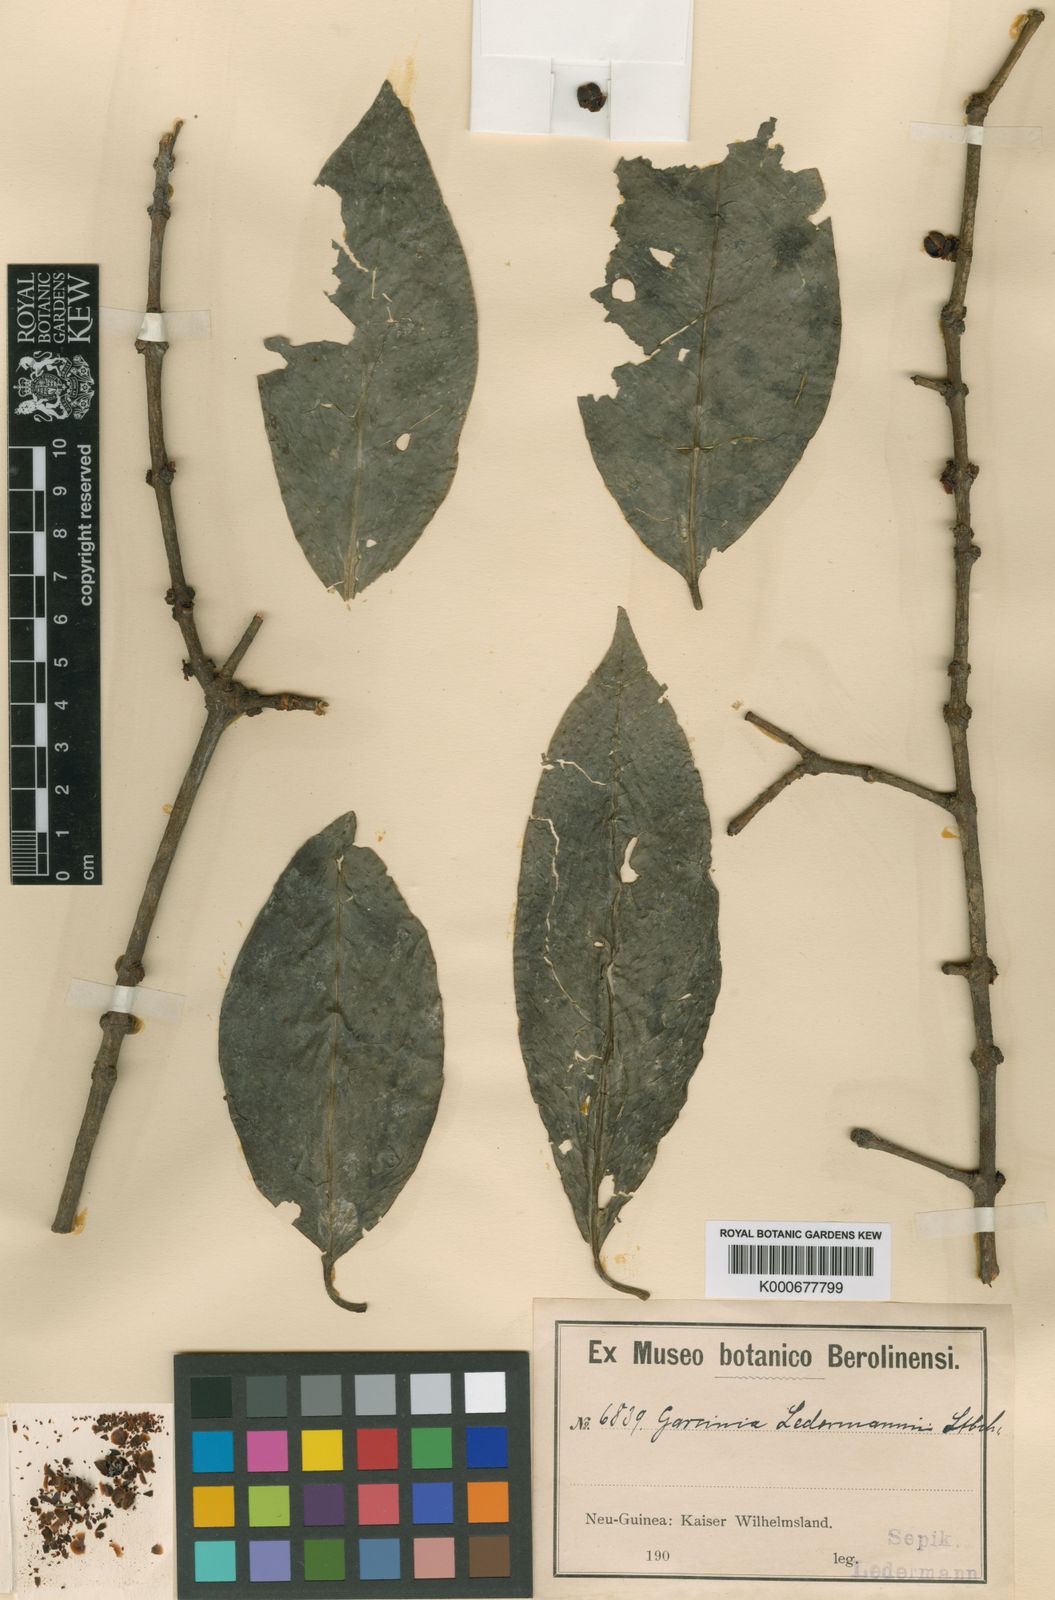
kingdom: Plantae
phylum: Tracheophyta
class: Magnoliopsida
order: Malpighiales
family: Clusiaceae
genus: Garcinia
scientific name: Garcinia ledermannii
